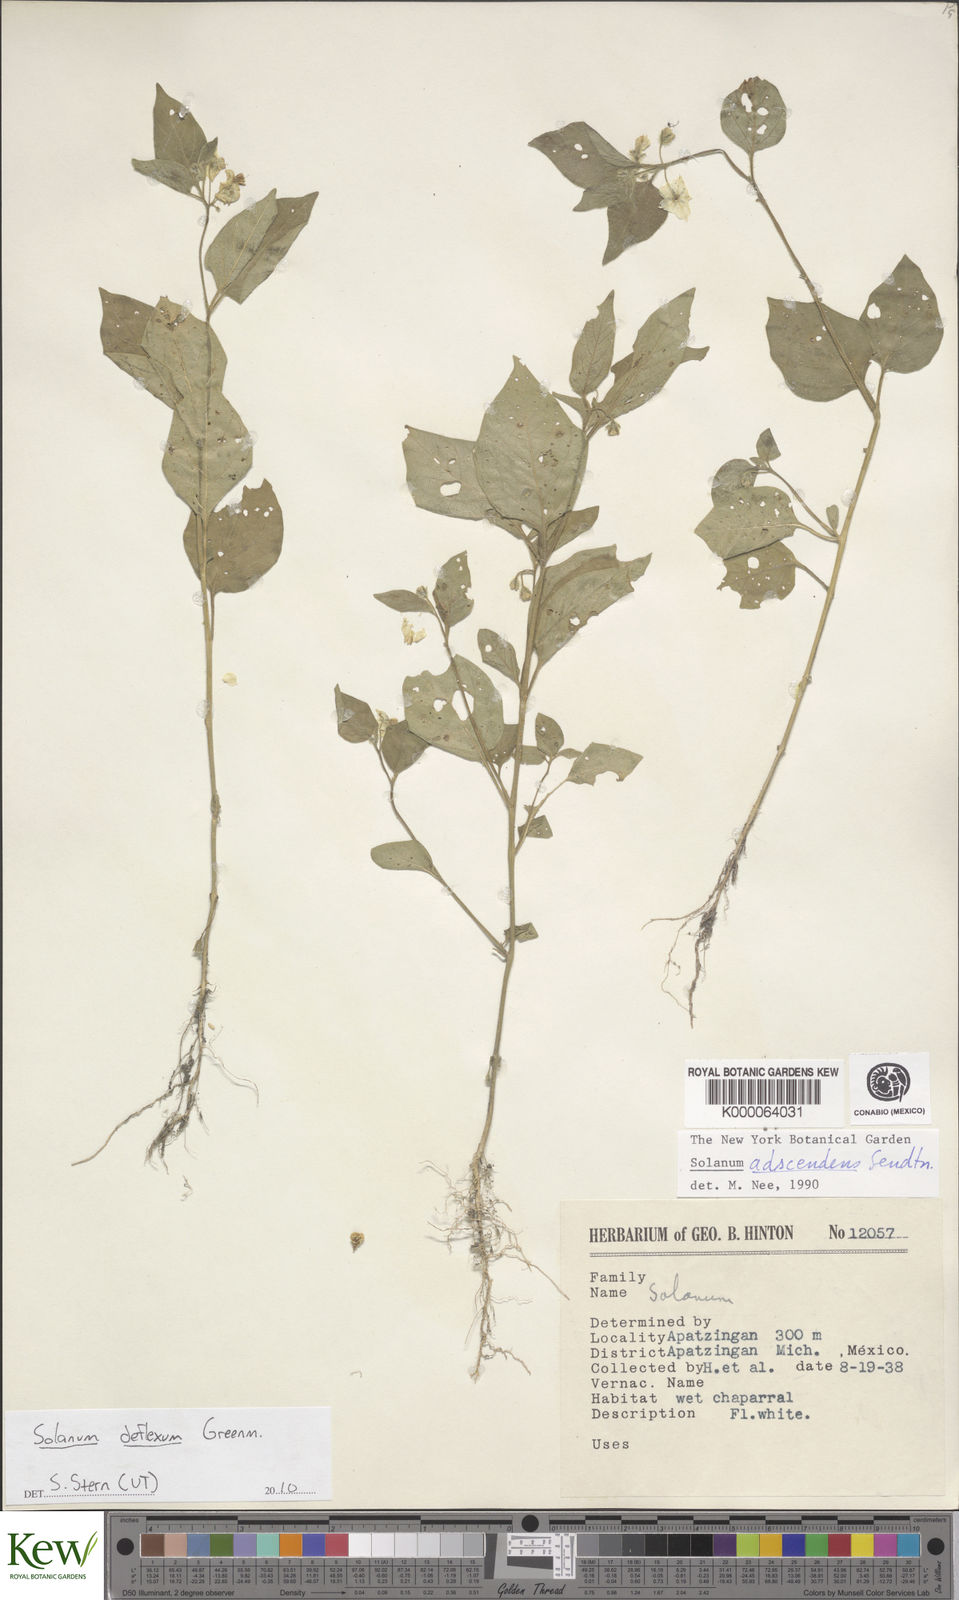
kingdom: Plantae
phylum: Tracheophyta
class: Magnoliopsida
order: Solanales
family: Solanaceae
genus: Solanum
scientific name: Solanum
